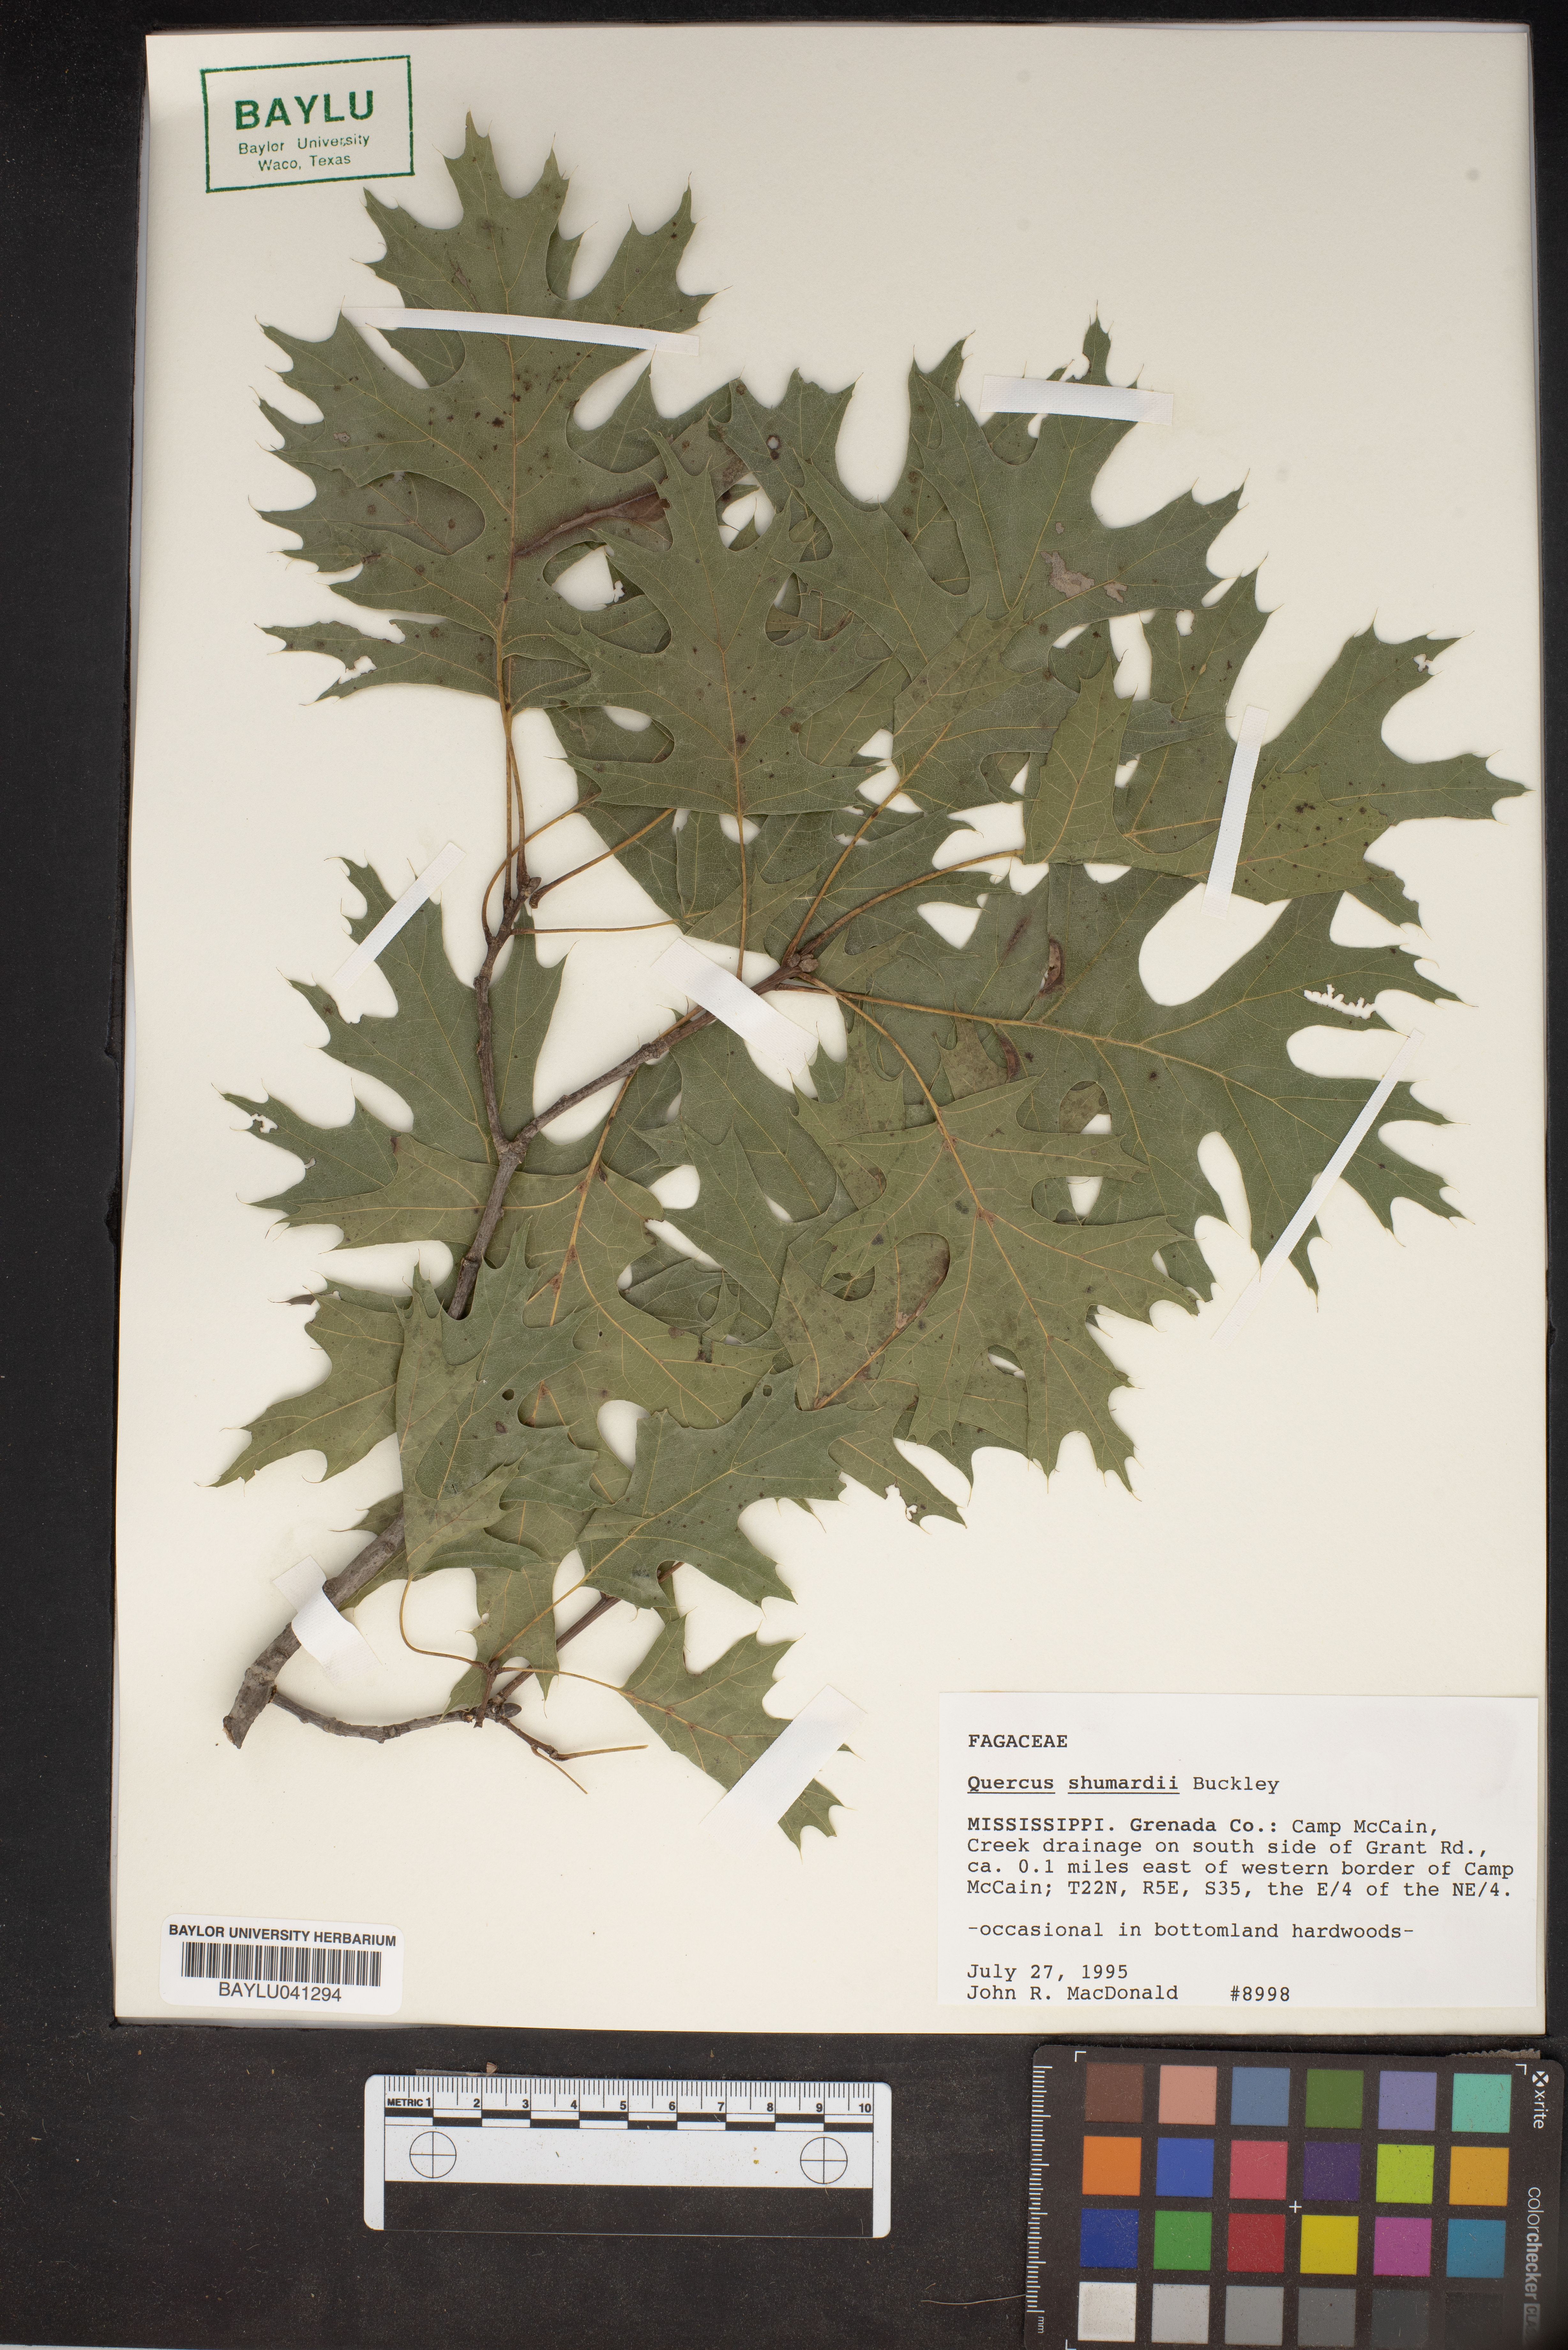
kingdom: Plantae
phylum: Tracheophyta
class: Magnoliopsida
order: Fagales
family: Fagaceae
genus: Quercus
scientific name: Quercus shumardii
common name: Shumard oak
